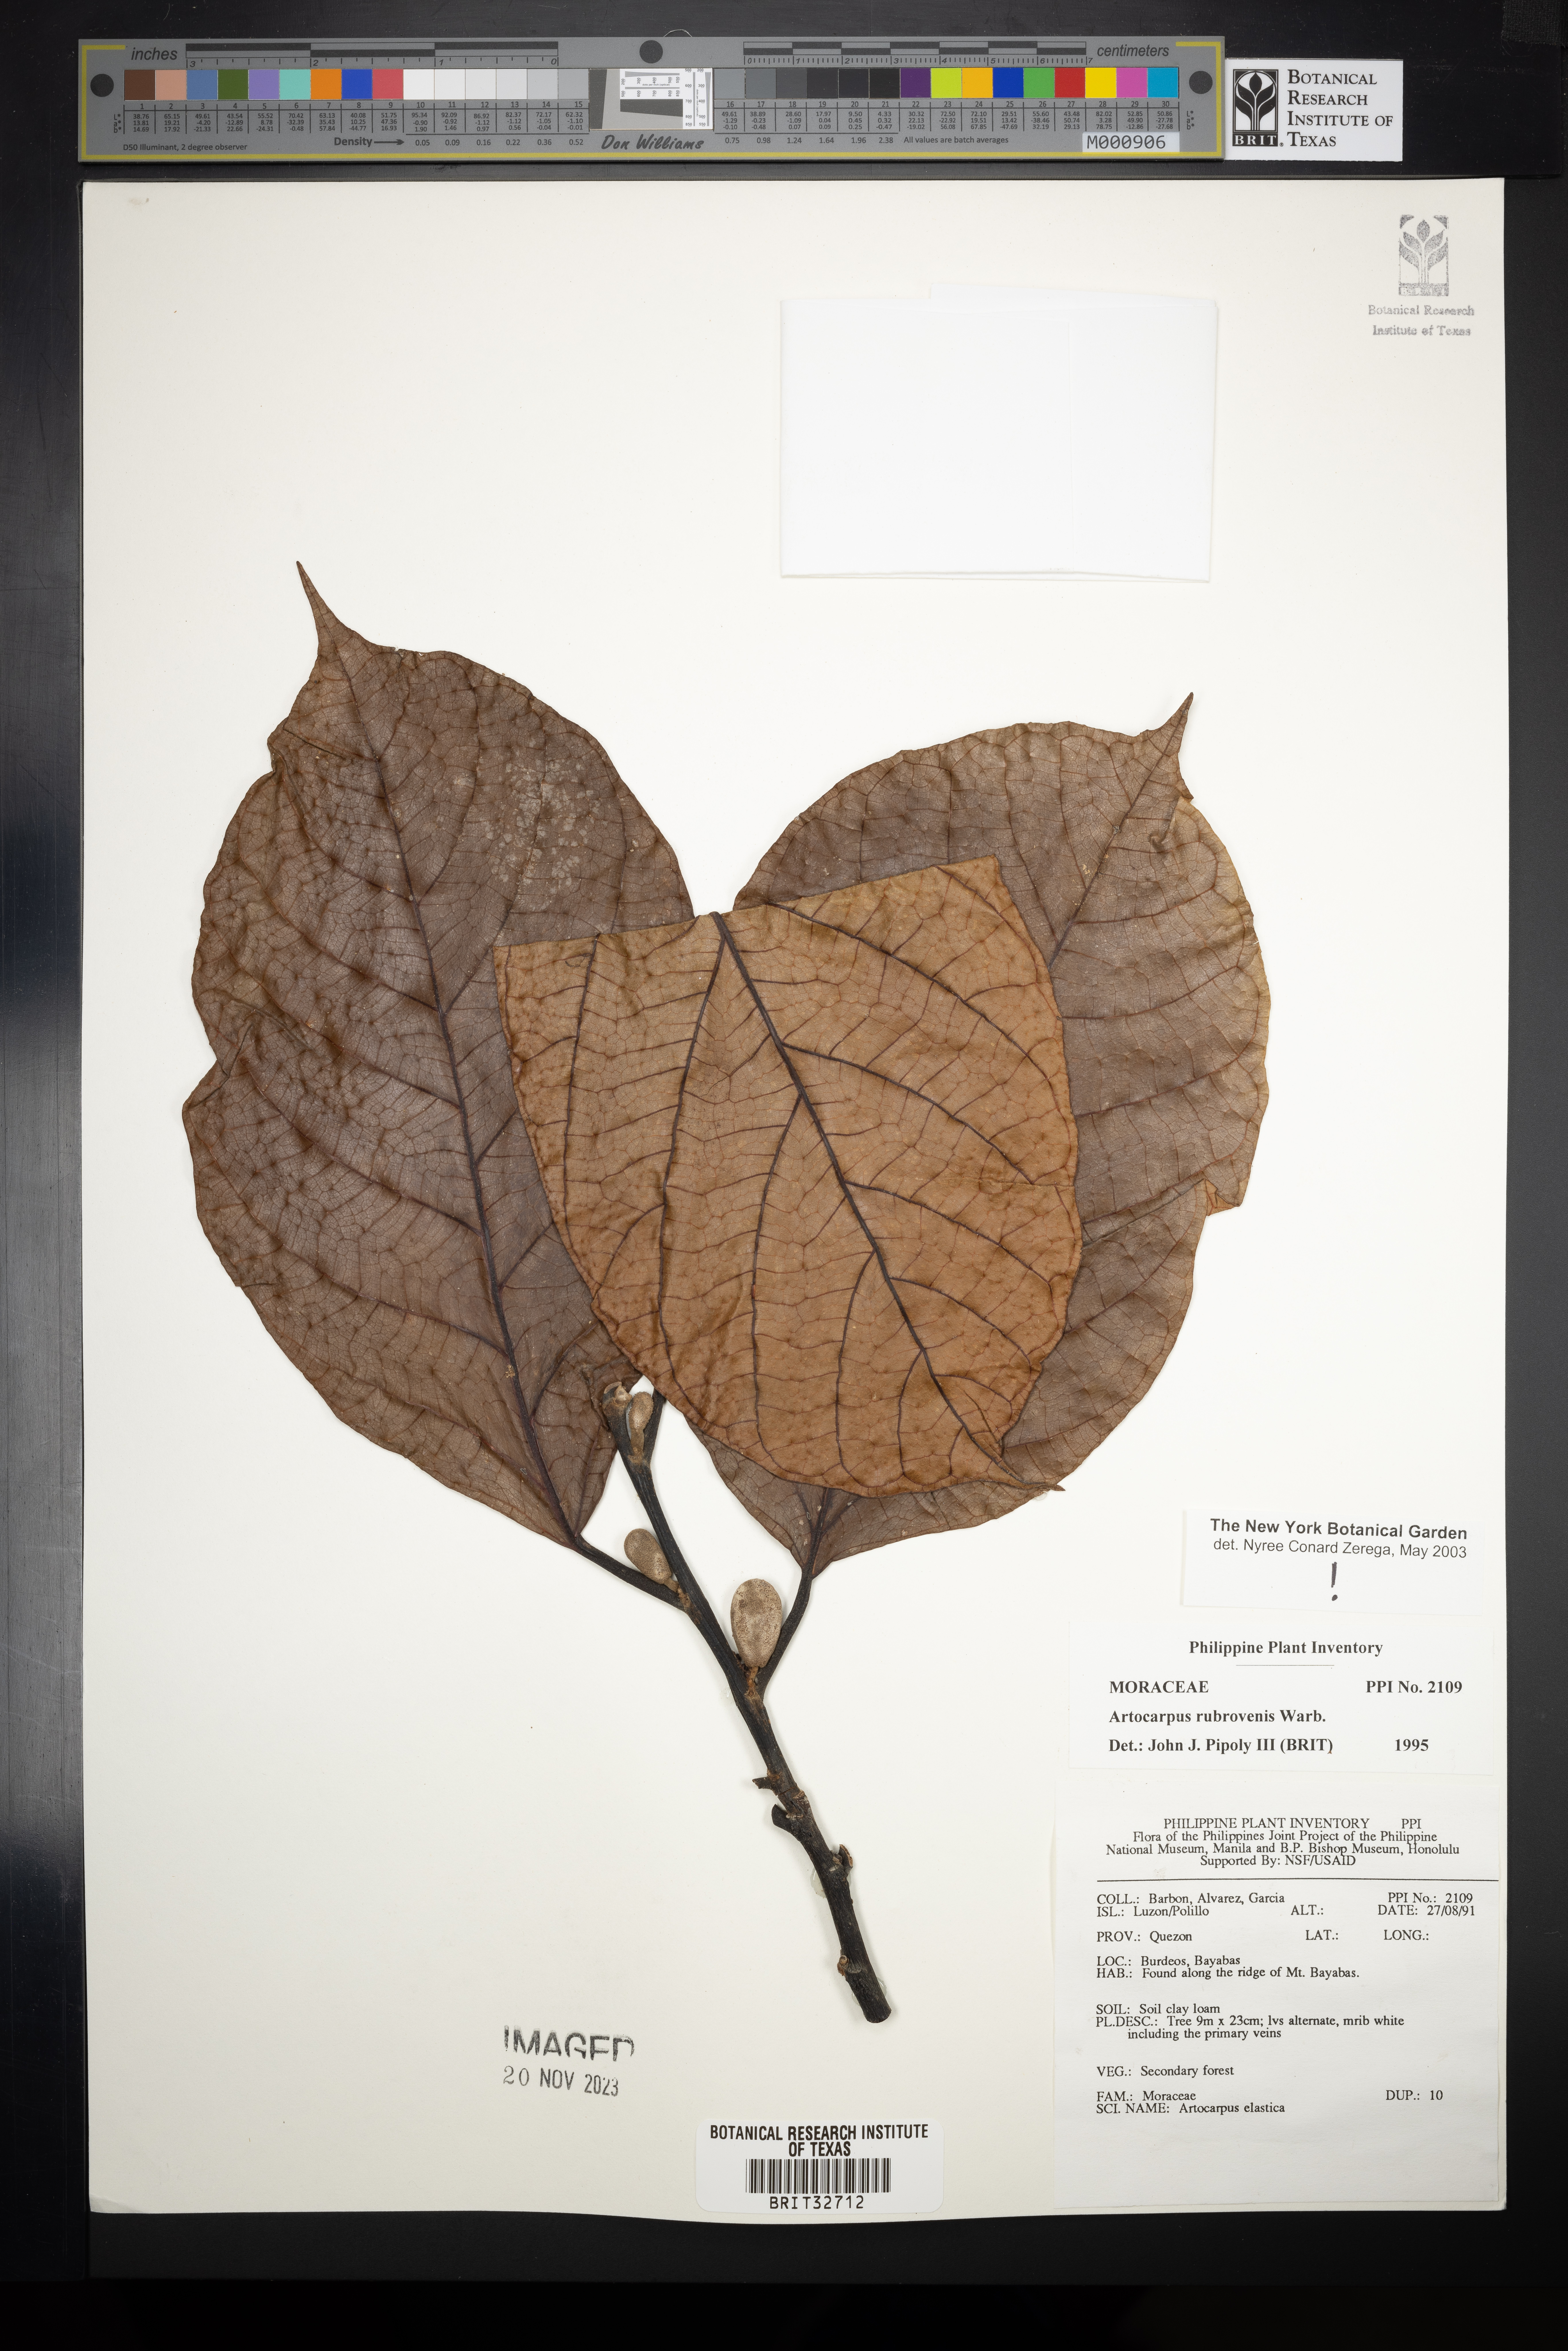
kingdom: Plantae
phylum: Tracheophyta
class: Magnoliopsida
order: Rosales
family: Moraceae
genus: Artocarpus
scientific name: Artocarpus rubrovenius
